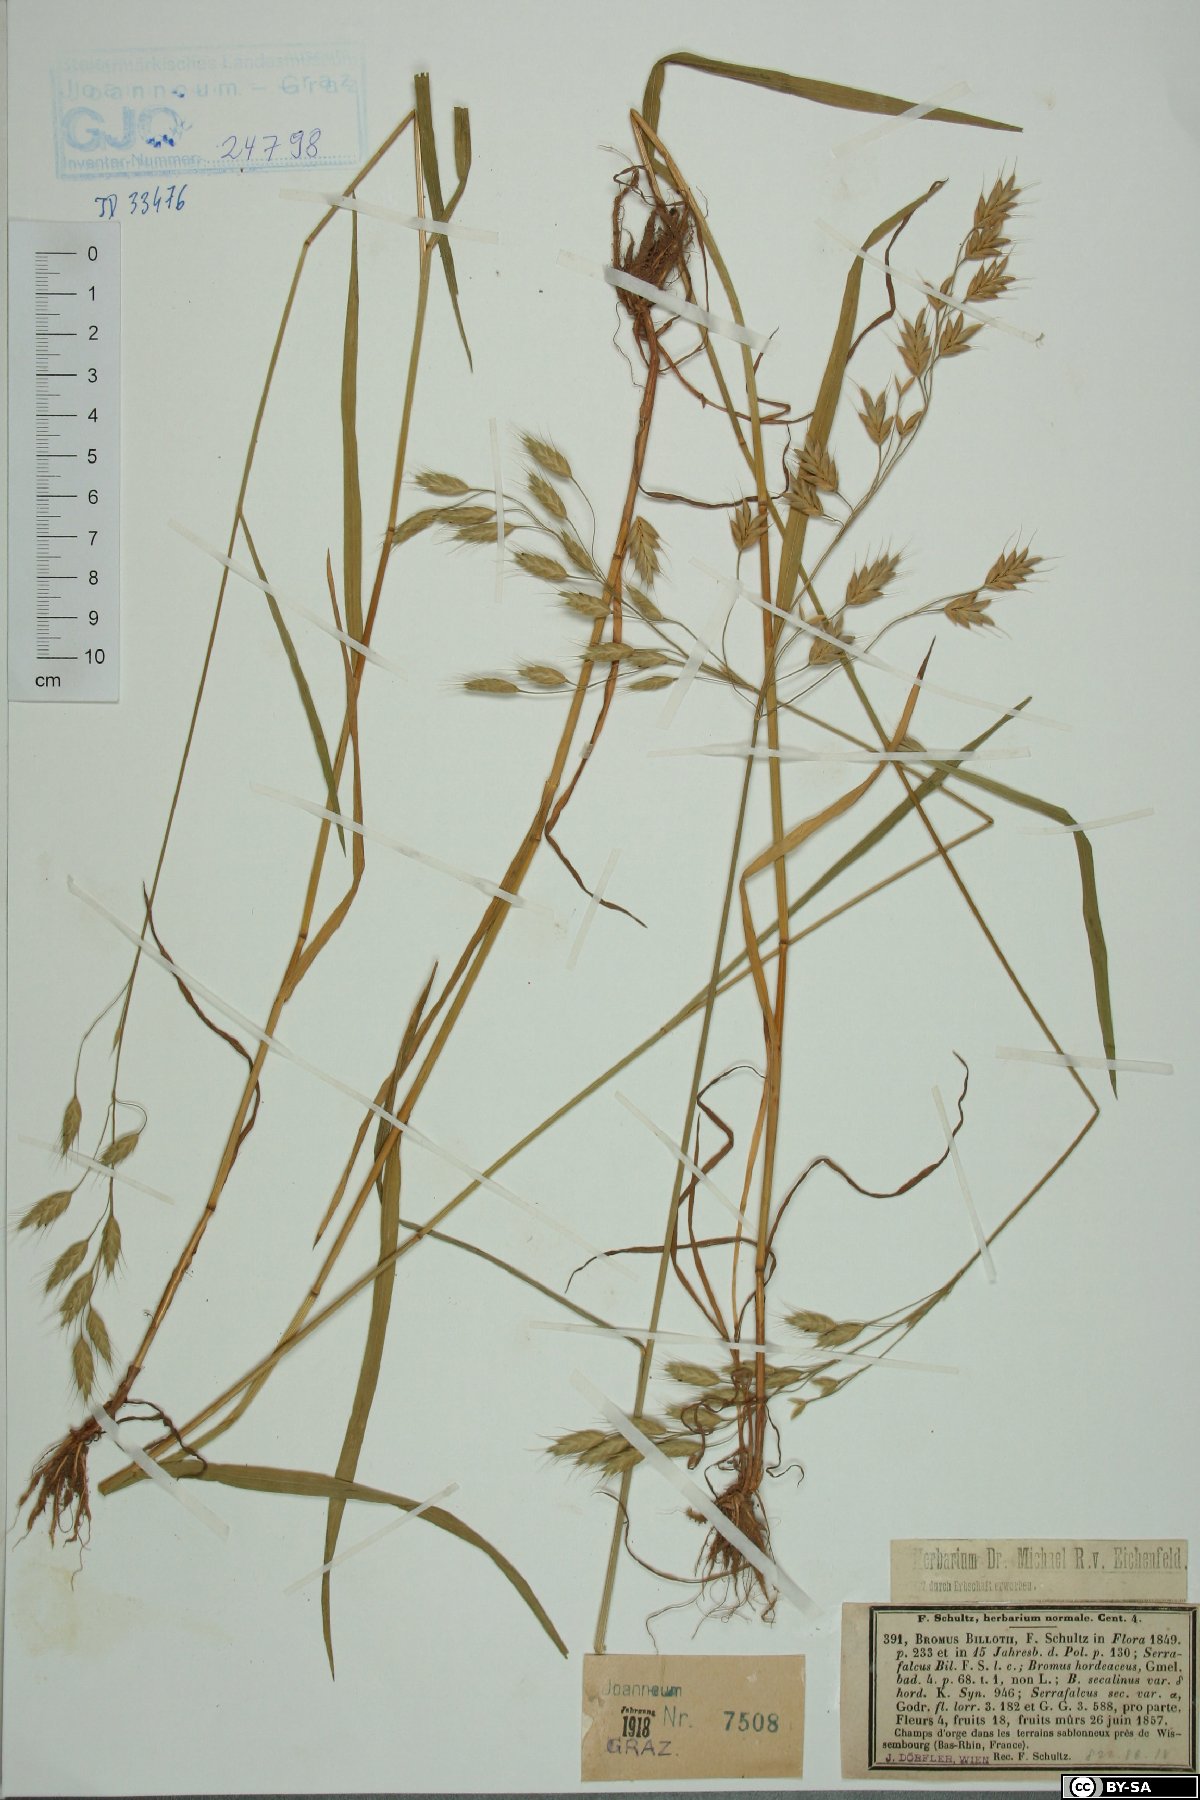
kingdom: Plantae
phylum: Tracheophyta
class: Liliopsida
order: Poales
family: Poaceae
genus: Bromus
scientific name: Bromus secalinus
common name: Rye brome
